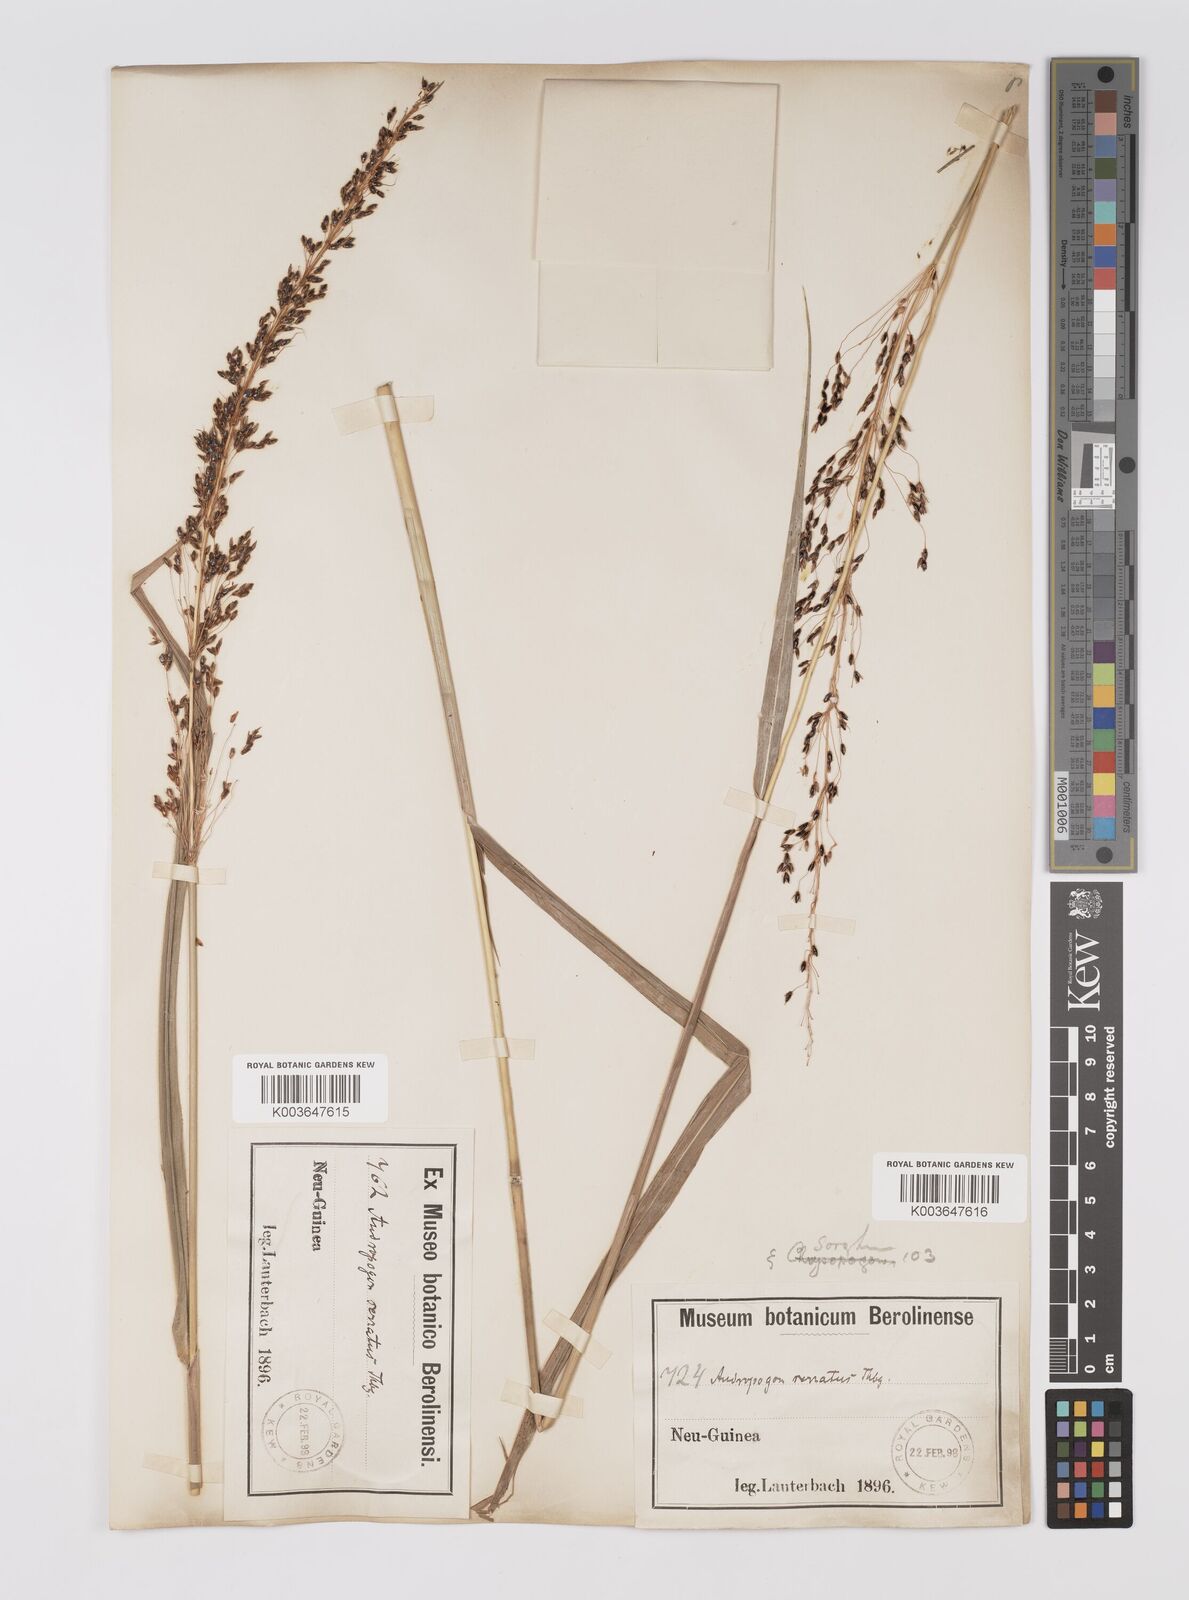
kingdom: Plantae
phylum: Tracheophyta
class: Liliopsida
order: Poales
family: Poaceae
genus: Sorghum
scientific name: Sorghum nitidum
